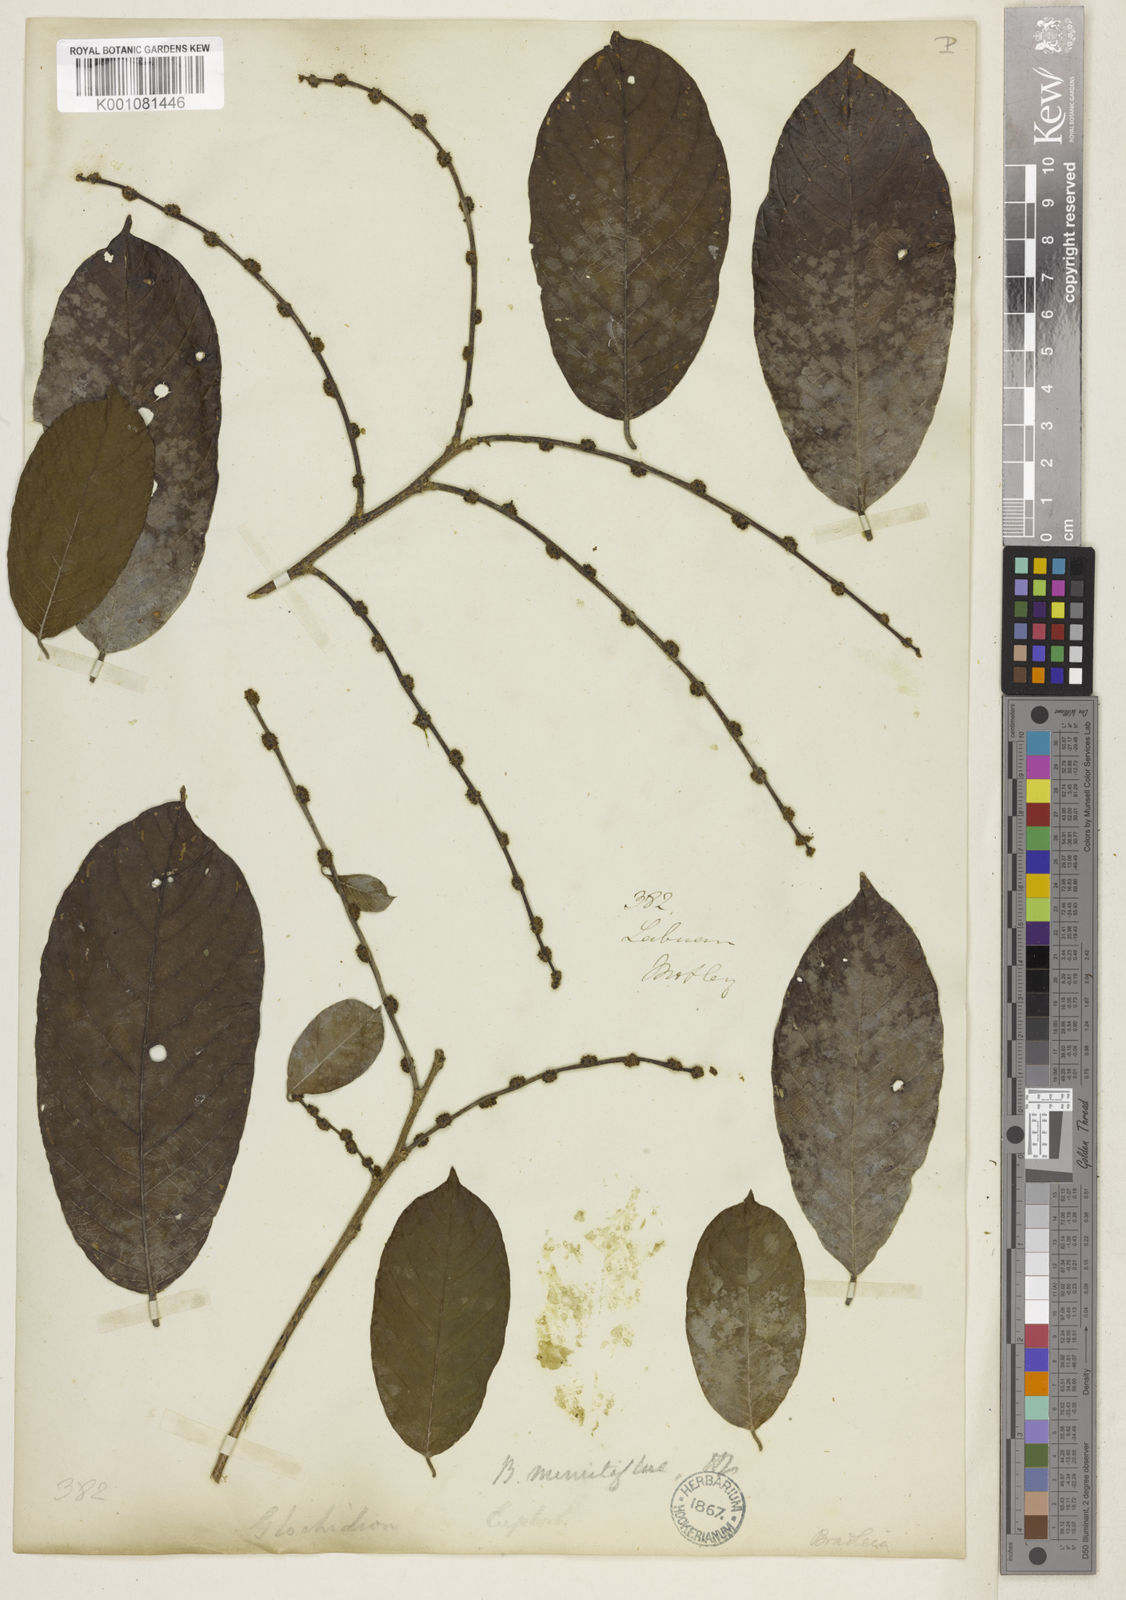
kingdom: Plantae
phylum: Tracheophyta
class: Magnoliopsida
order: Malpighiales
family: Phyllanthaceae
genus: Bridelia
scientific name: Bridelia insulana
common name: Grey-birch
